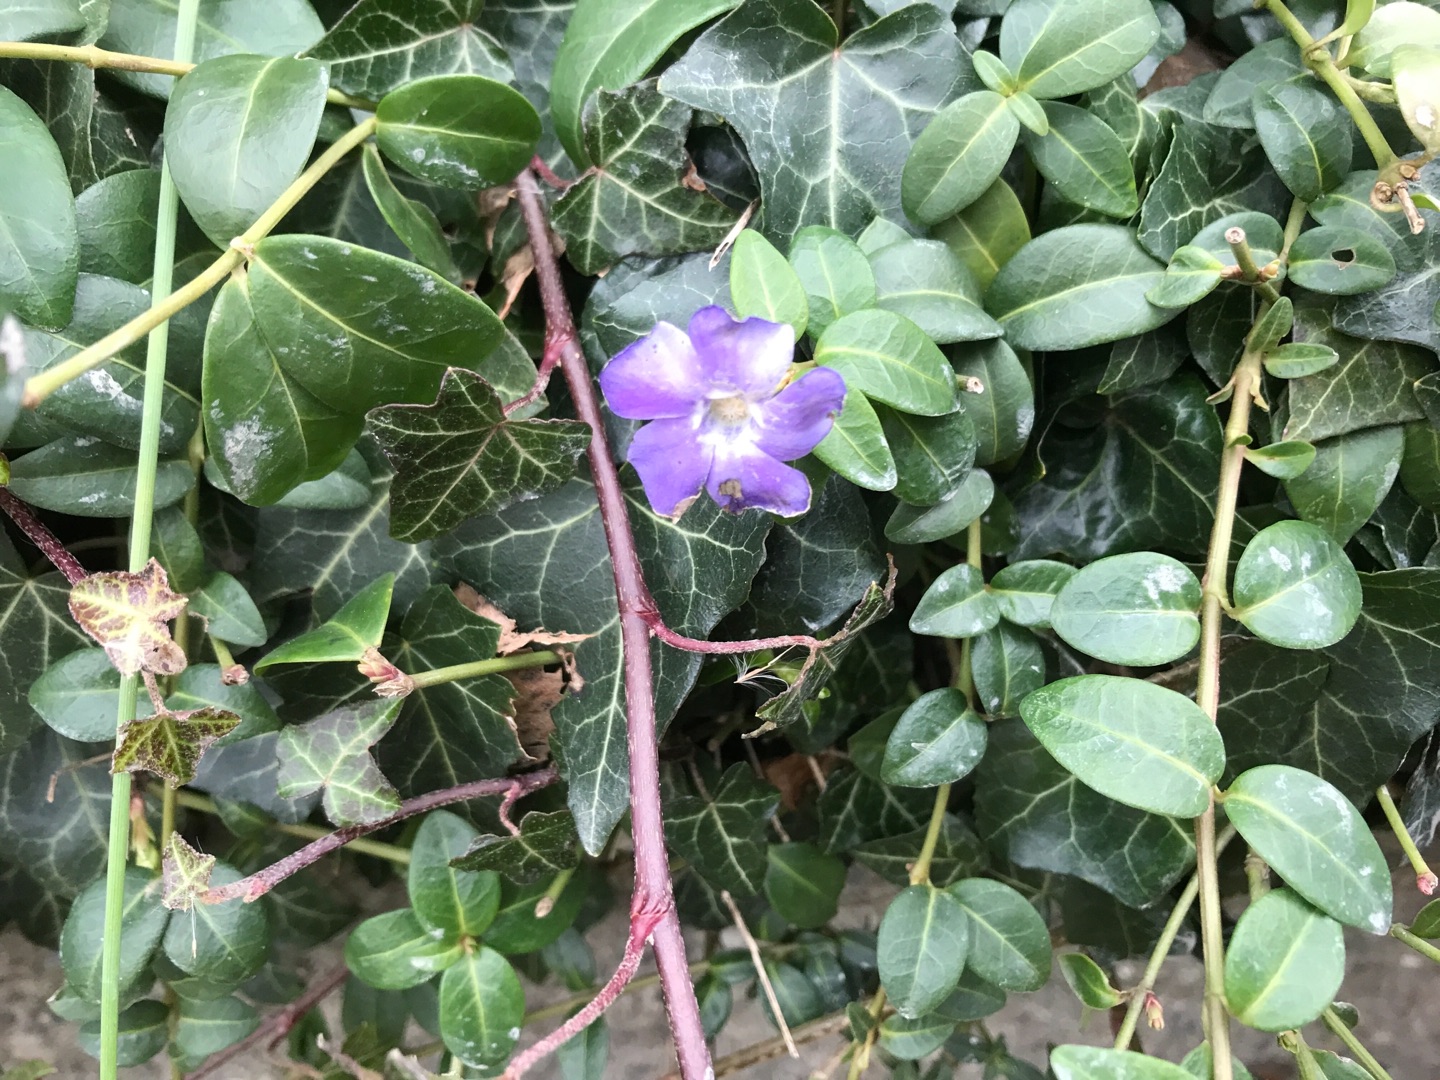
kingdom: Plantae
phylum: Tracheophyta
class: Magnoliopsida
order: Gentianales
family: Apocynaceae
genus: Vinca
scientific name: Vinca minor
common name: Liden singrøn
